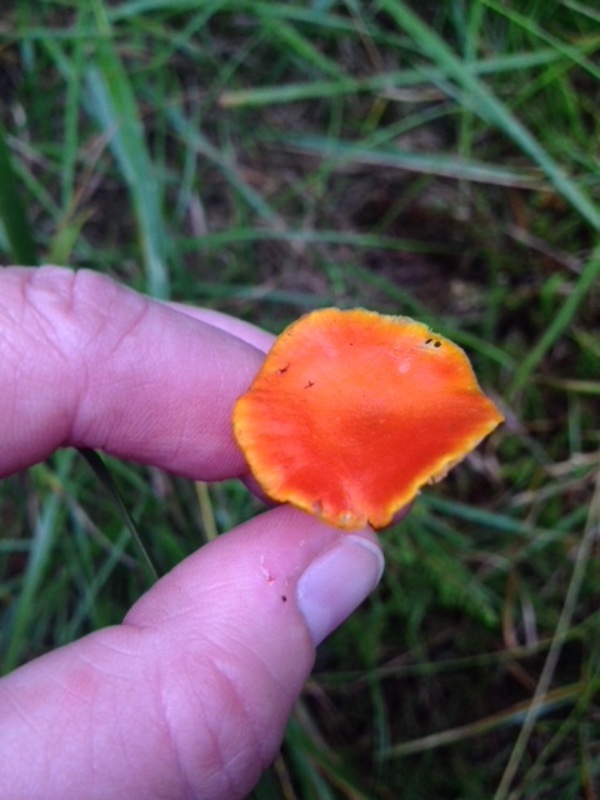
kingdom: Fungi
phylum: Basidiomycota
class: Agaricomycetes
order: Agaricales
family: Hygrophoraceae
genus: Hygrocybe
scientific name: Hygrocybe miniata
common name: mønje-vokshat
